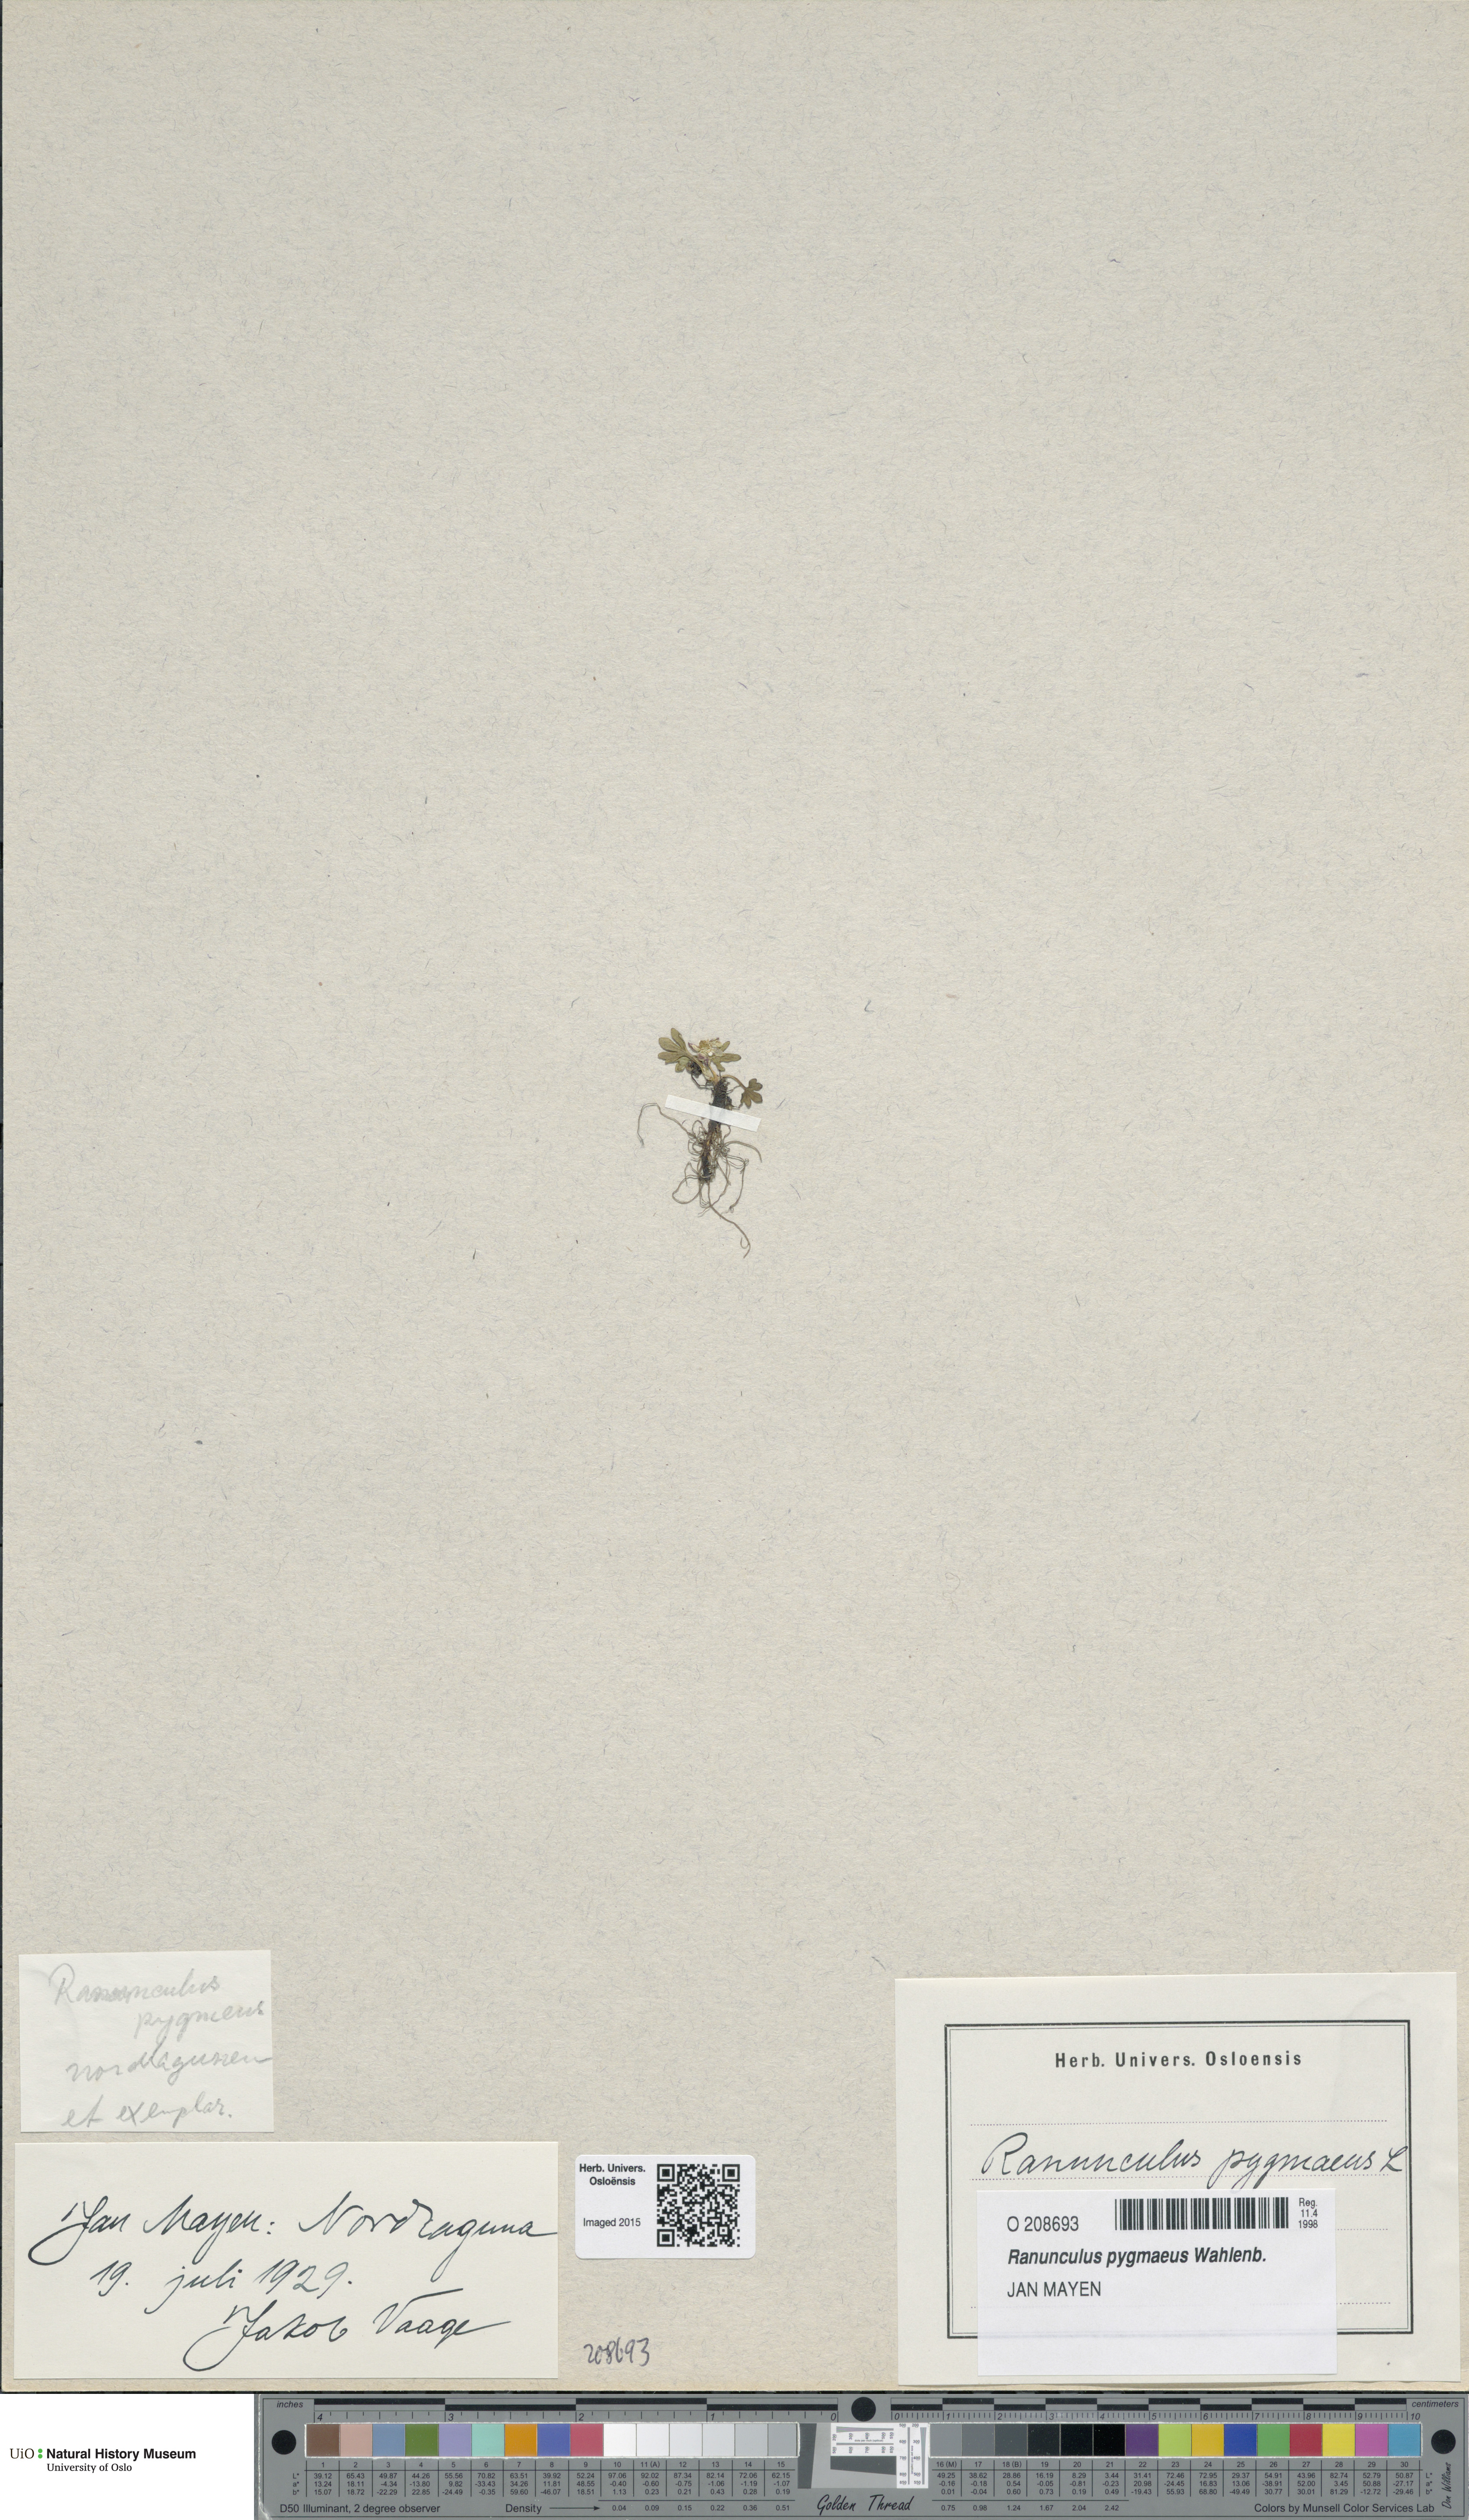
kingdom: Plantae
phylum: Tracheophyta
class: Magnoliopsida
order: Ranunculales
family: Ranunculaceae
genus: Ranunculus
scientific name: Ranunculus pygmaeus
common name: Dwarf buttercup
